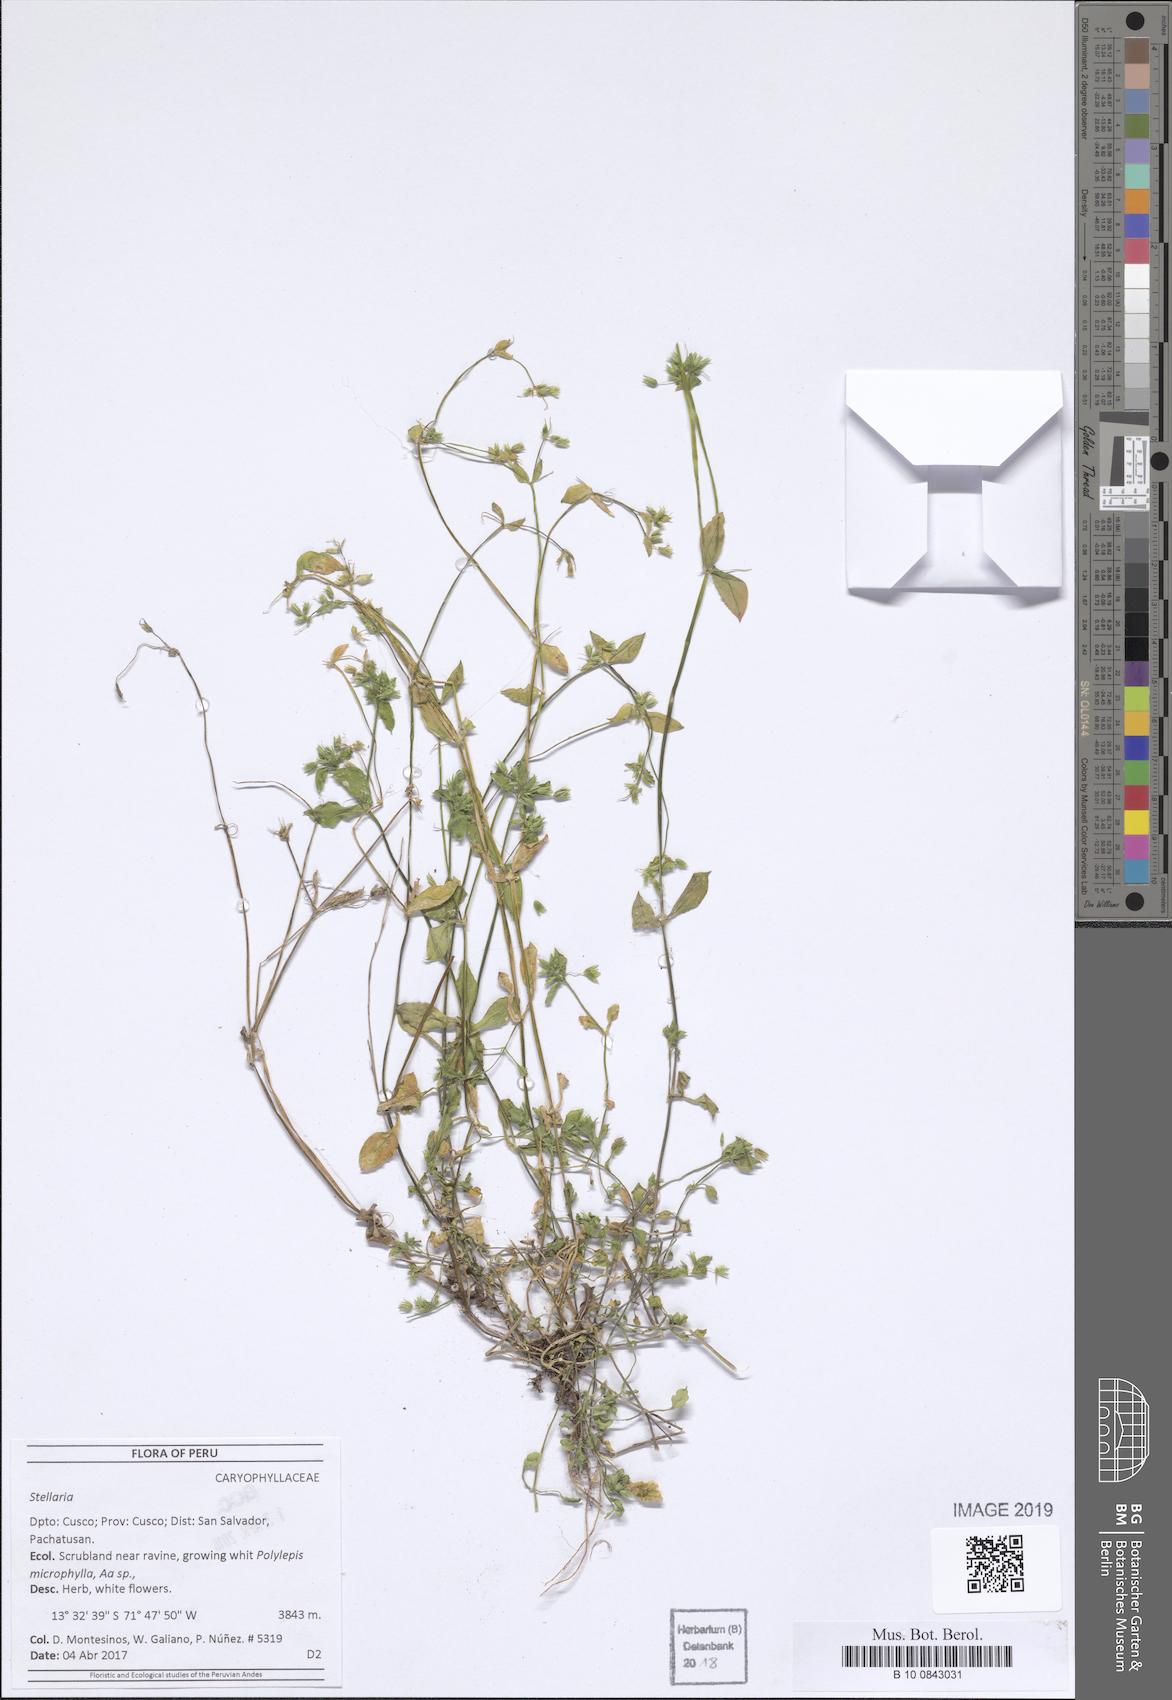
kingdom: Plantae
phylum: Tracheophyta
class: Magnoliopsida
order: Caryophyllales
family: Caryophyllaceae
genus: Stellaria
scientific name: Stellaria
